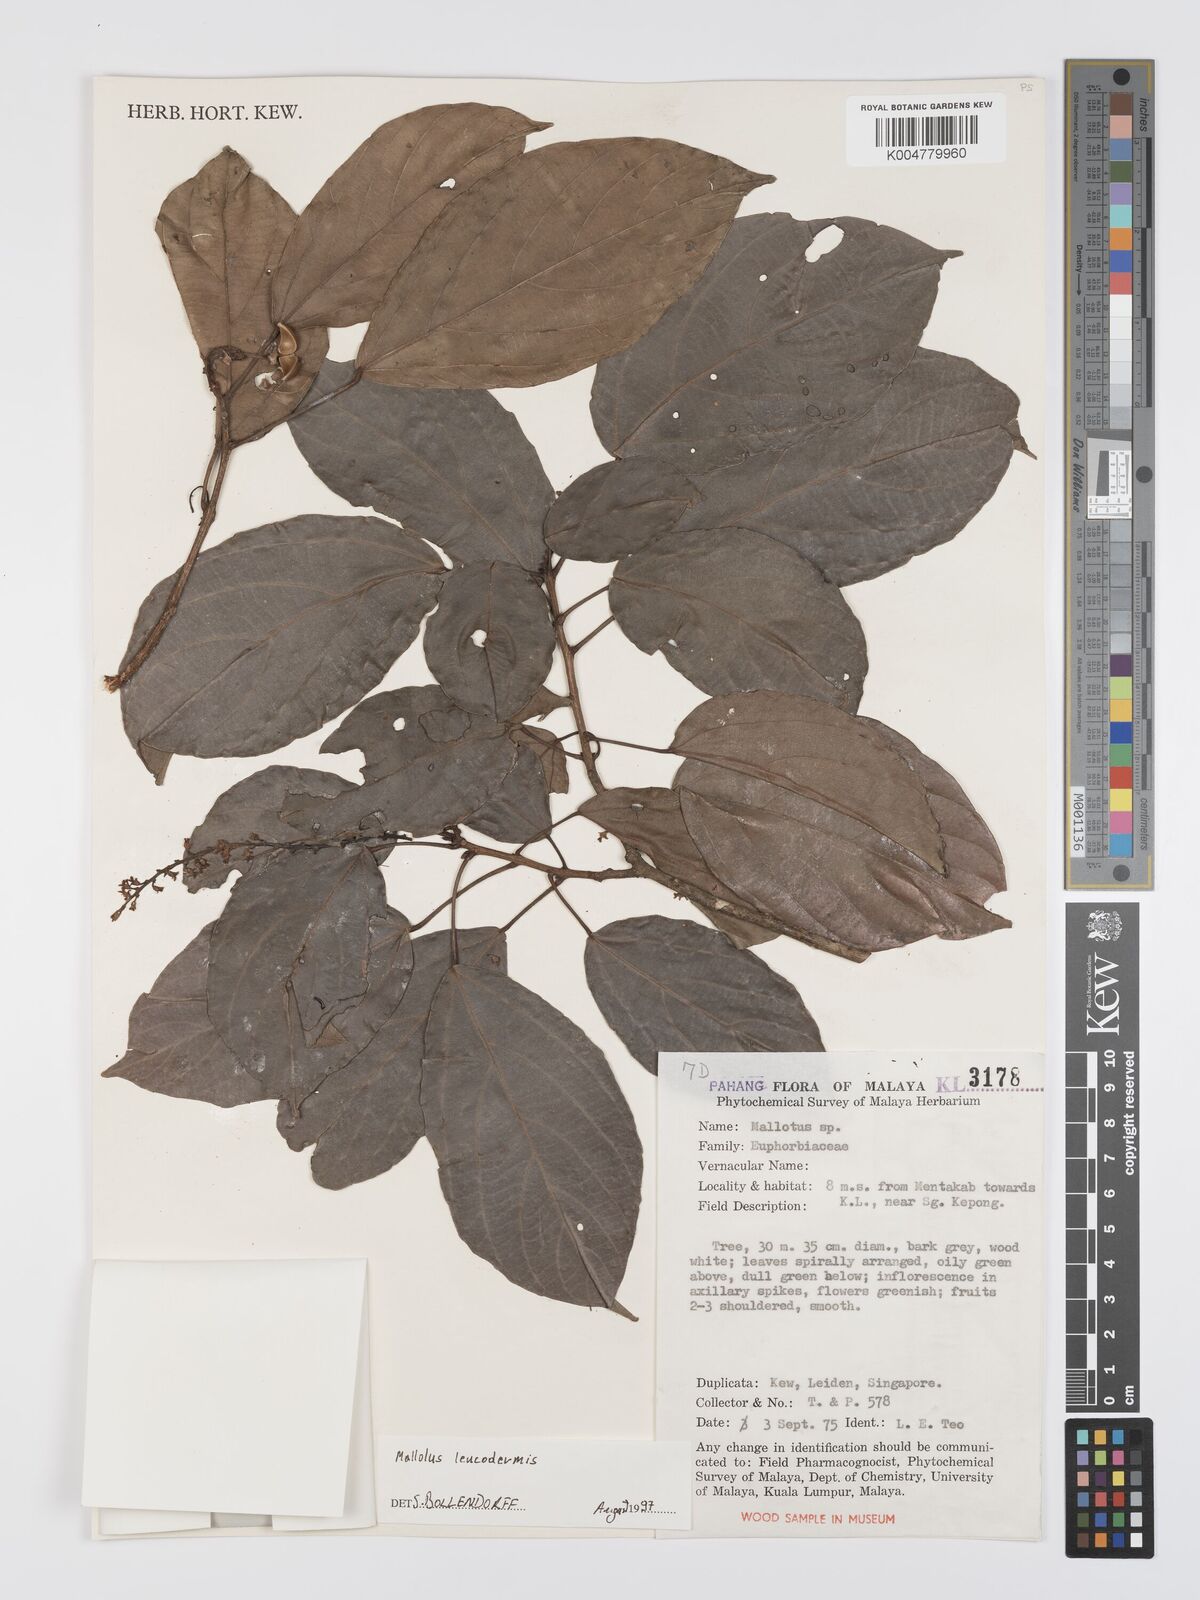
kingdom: Plantae
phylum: Tracheophyta
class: Magnoliopsida
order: Malpighiales
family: Euphorbiaceae
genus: Mallotus
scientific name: Mallotus leucodermis
